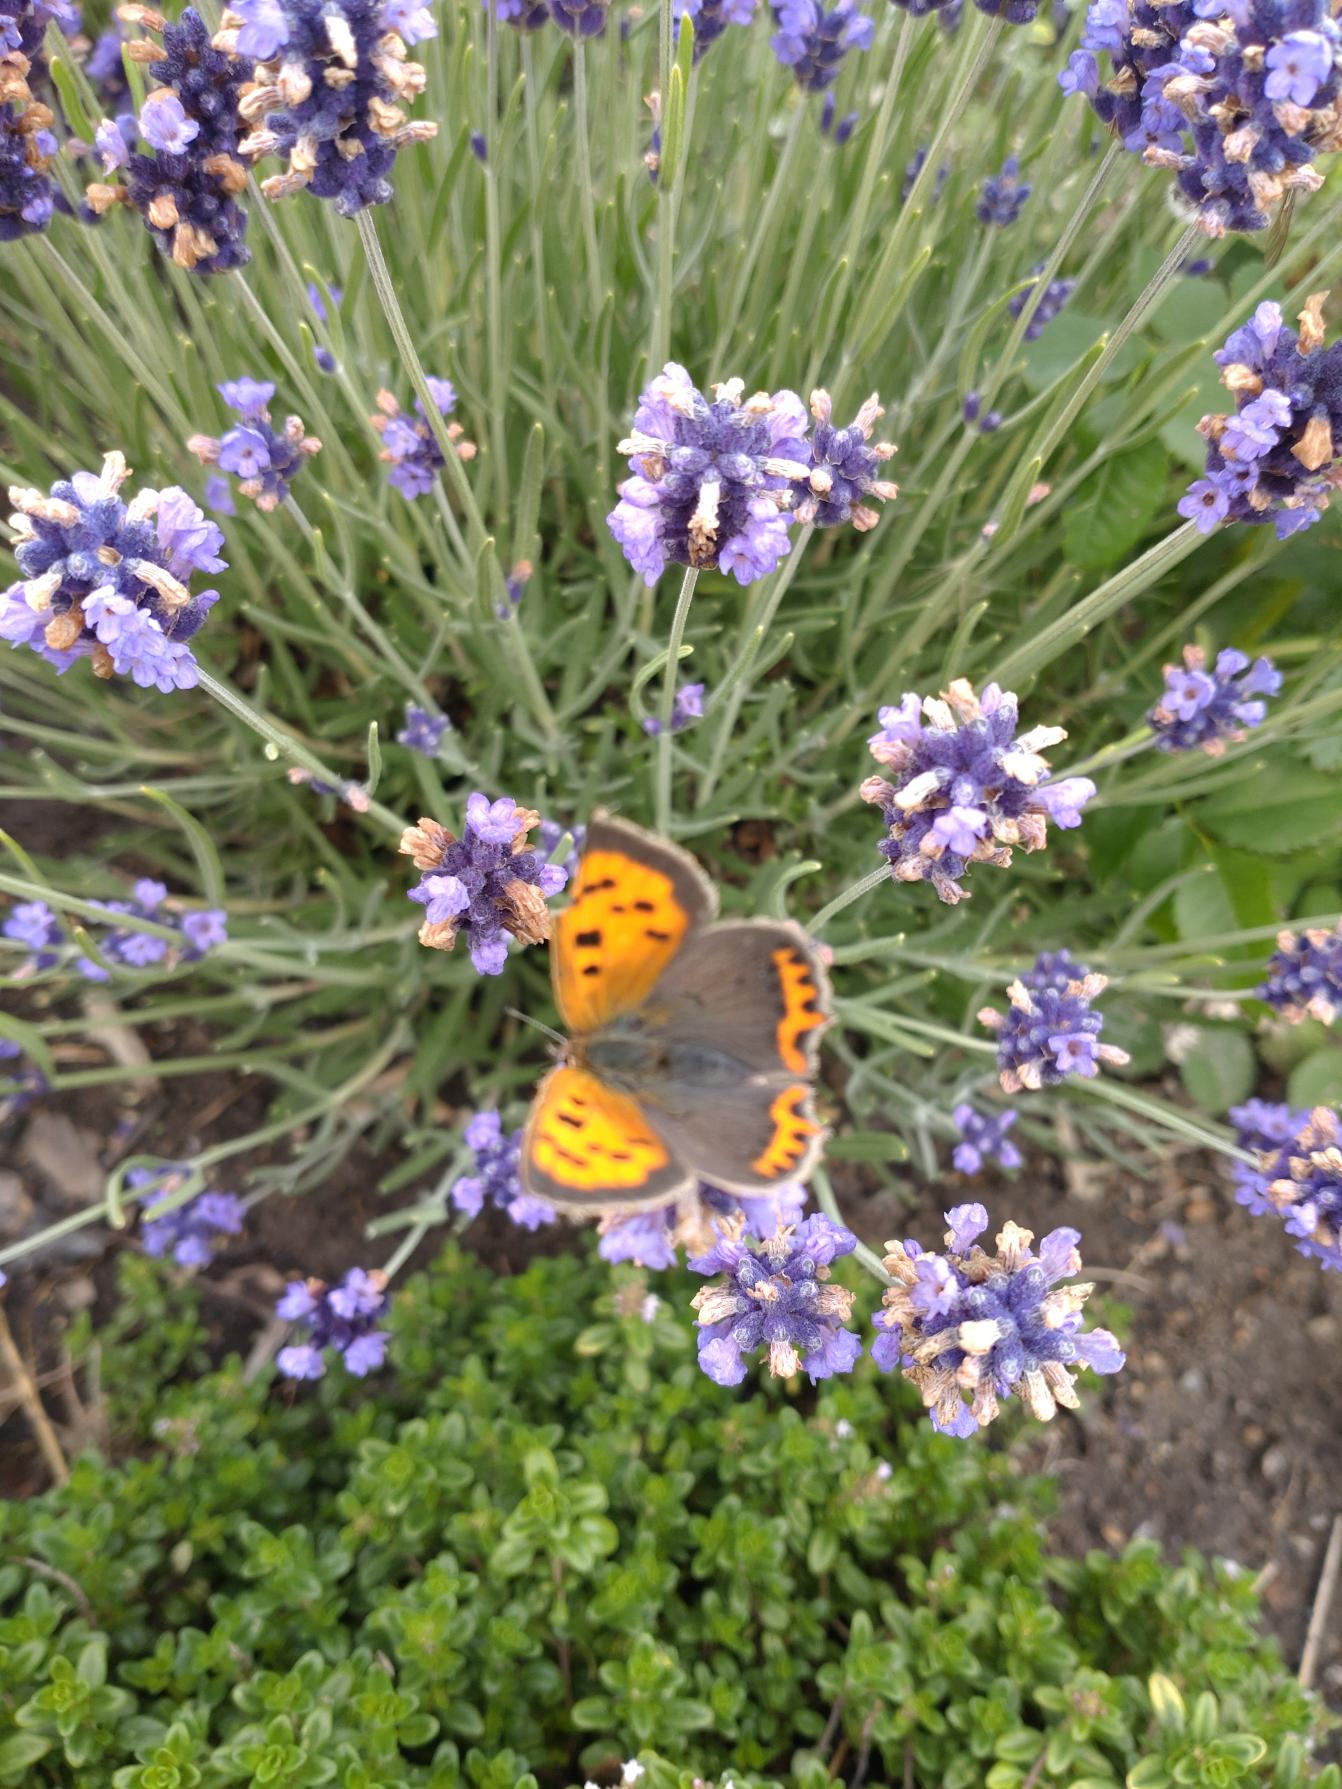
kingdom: Animalia
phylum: Arthropoda
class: Insecta
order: Lepidoptera
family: Lycaenidae
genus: Lycaena
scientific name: Lycaena phlaeas
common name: Lille ildfugl
